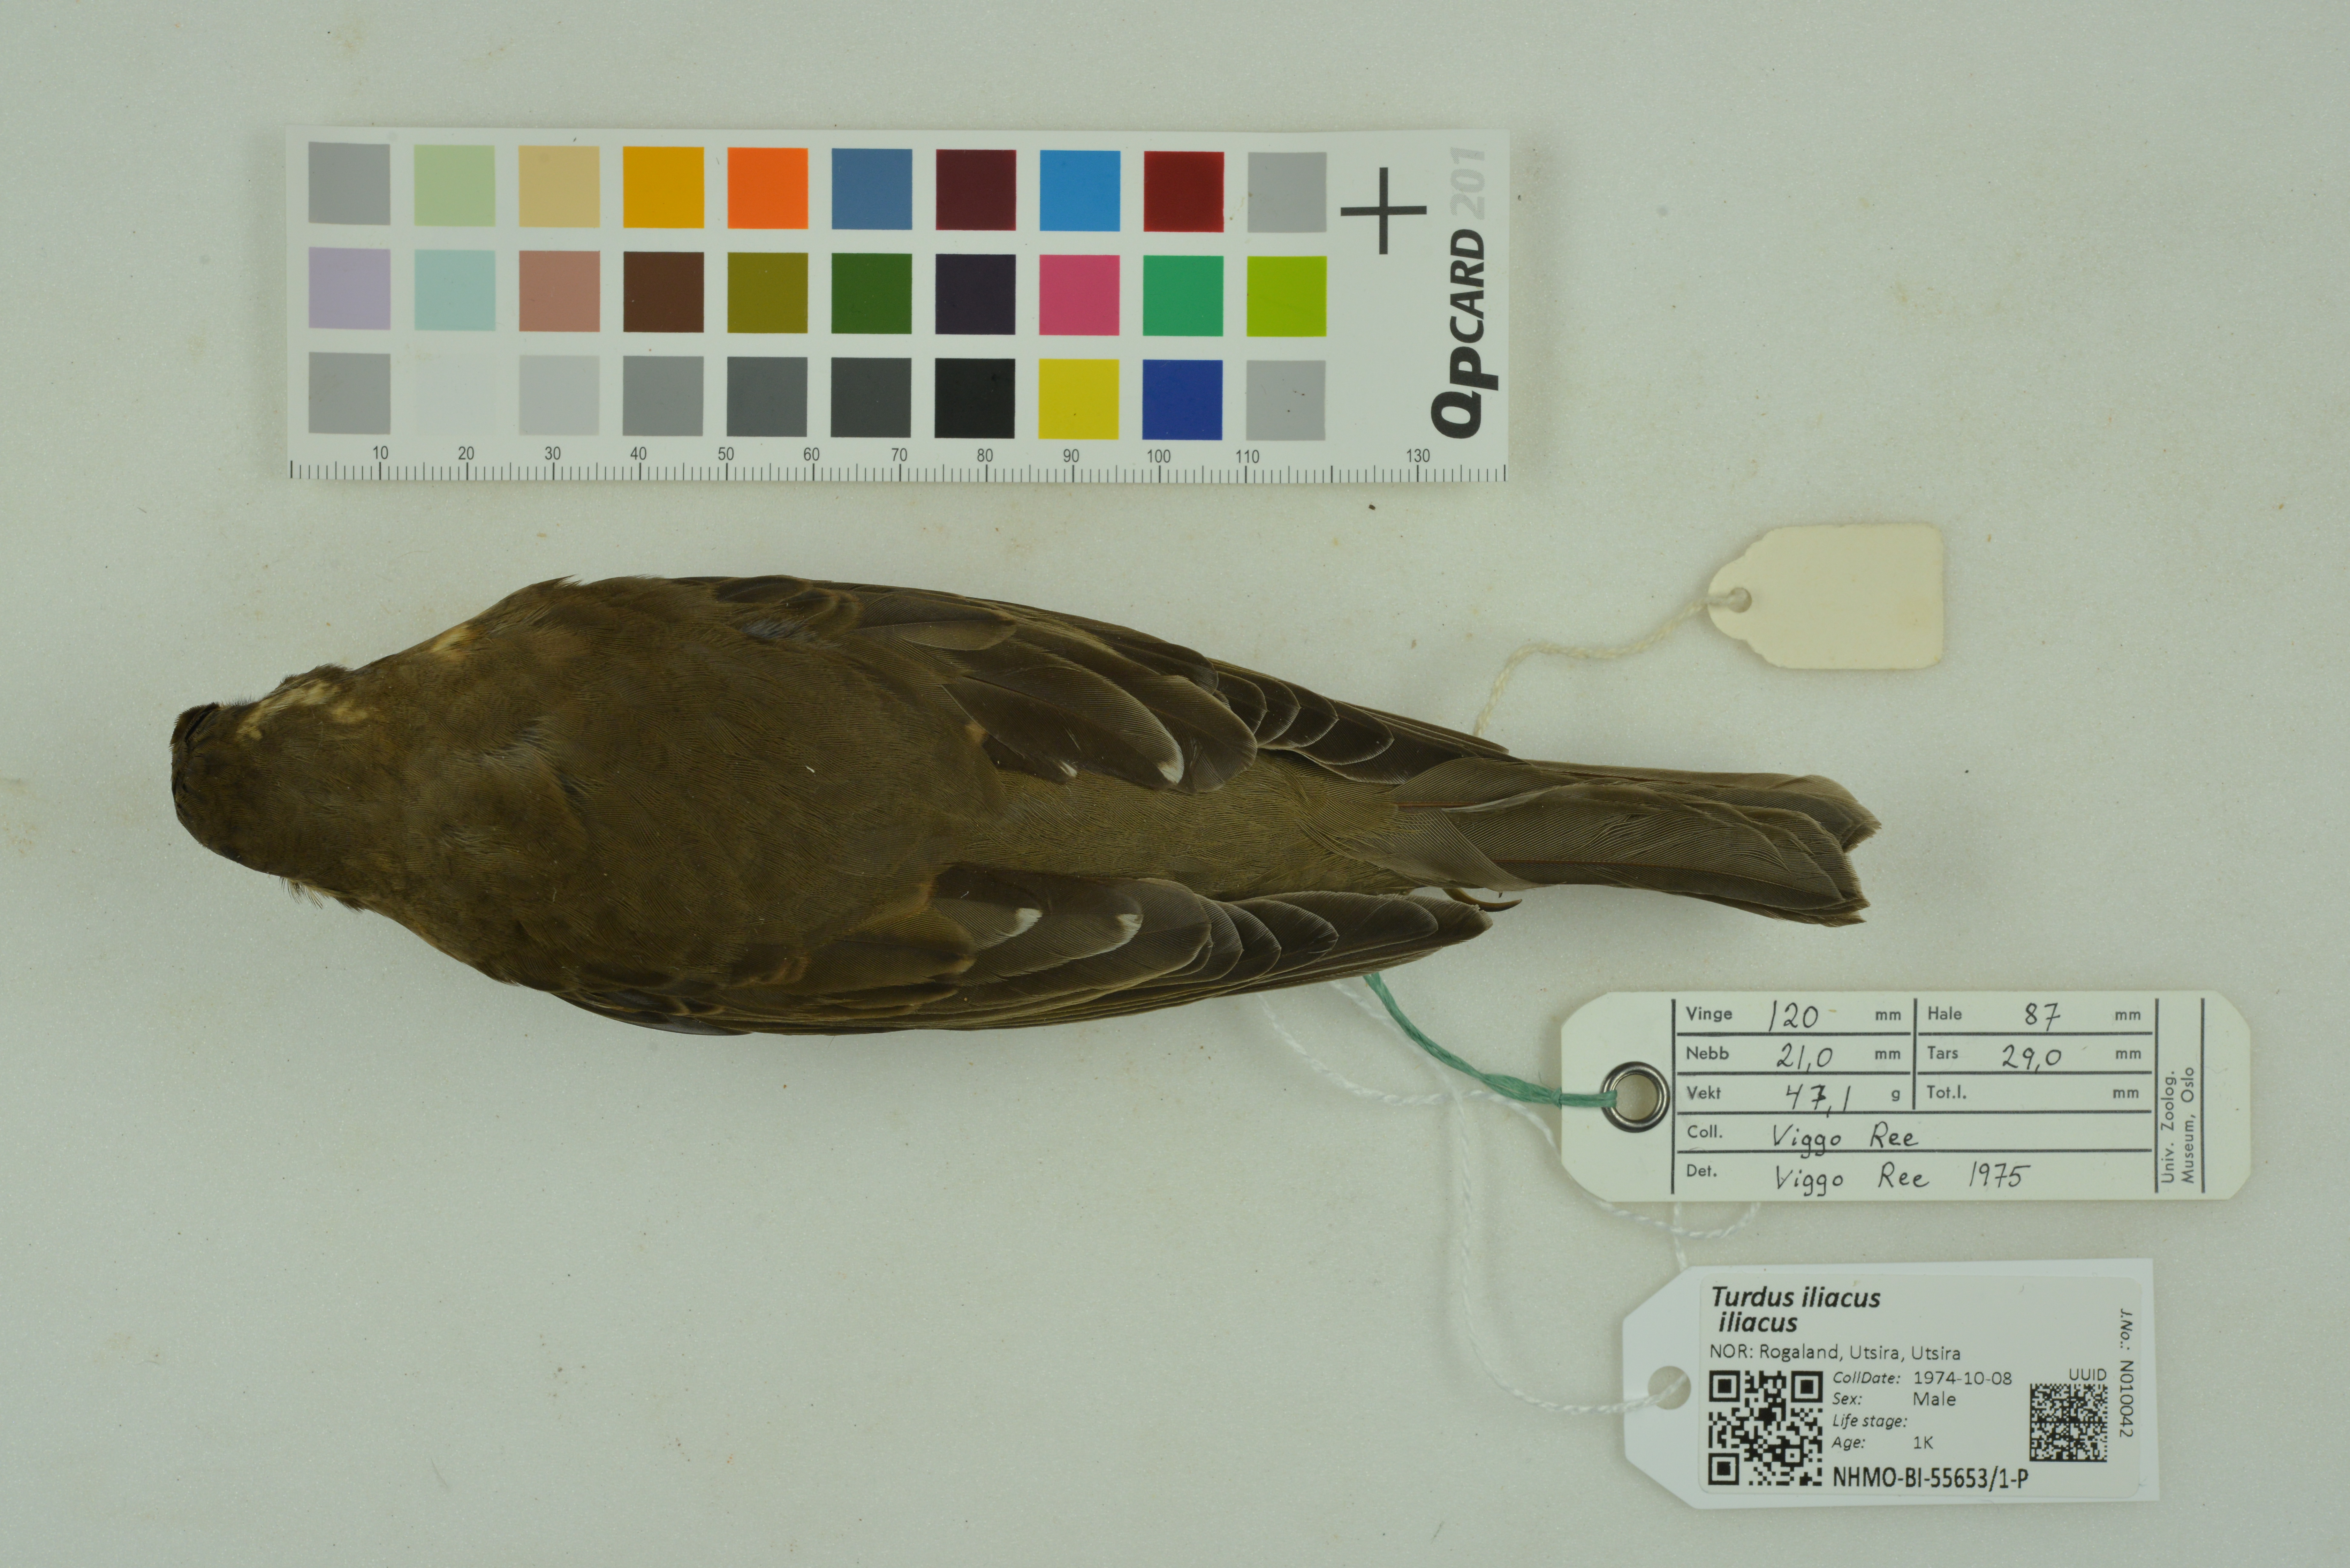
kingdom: Animalia
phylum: Chordata
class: Aves
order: Passeriformes
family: Turdidae
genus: Turdus
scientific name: Turdus iliacus
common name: Redwing
